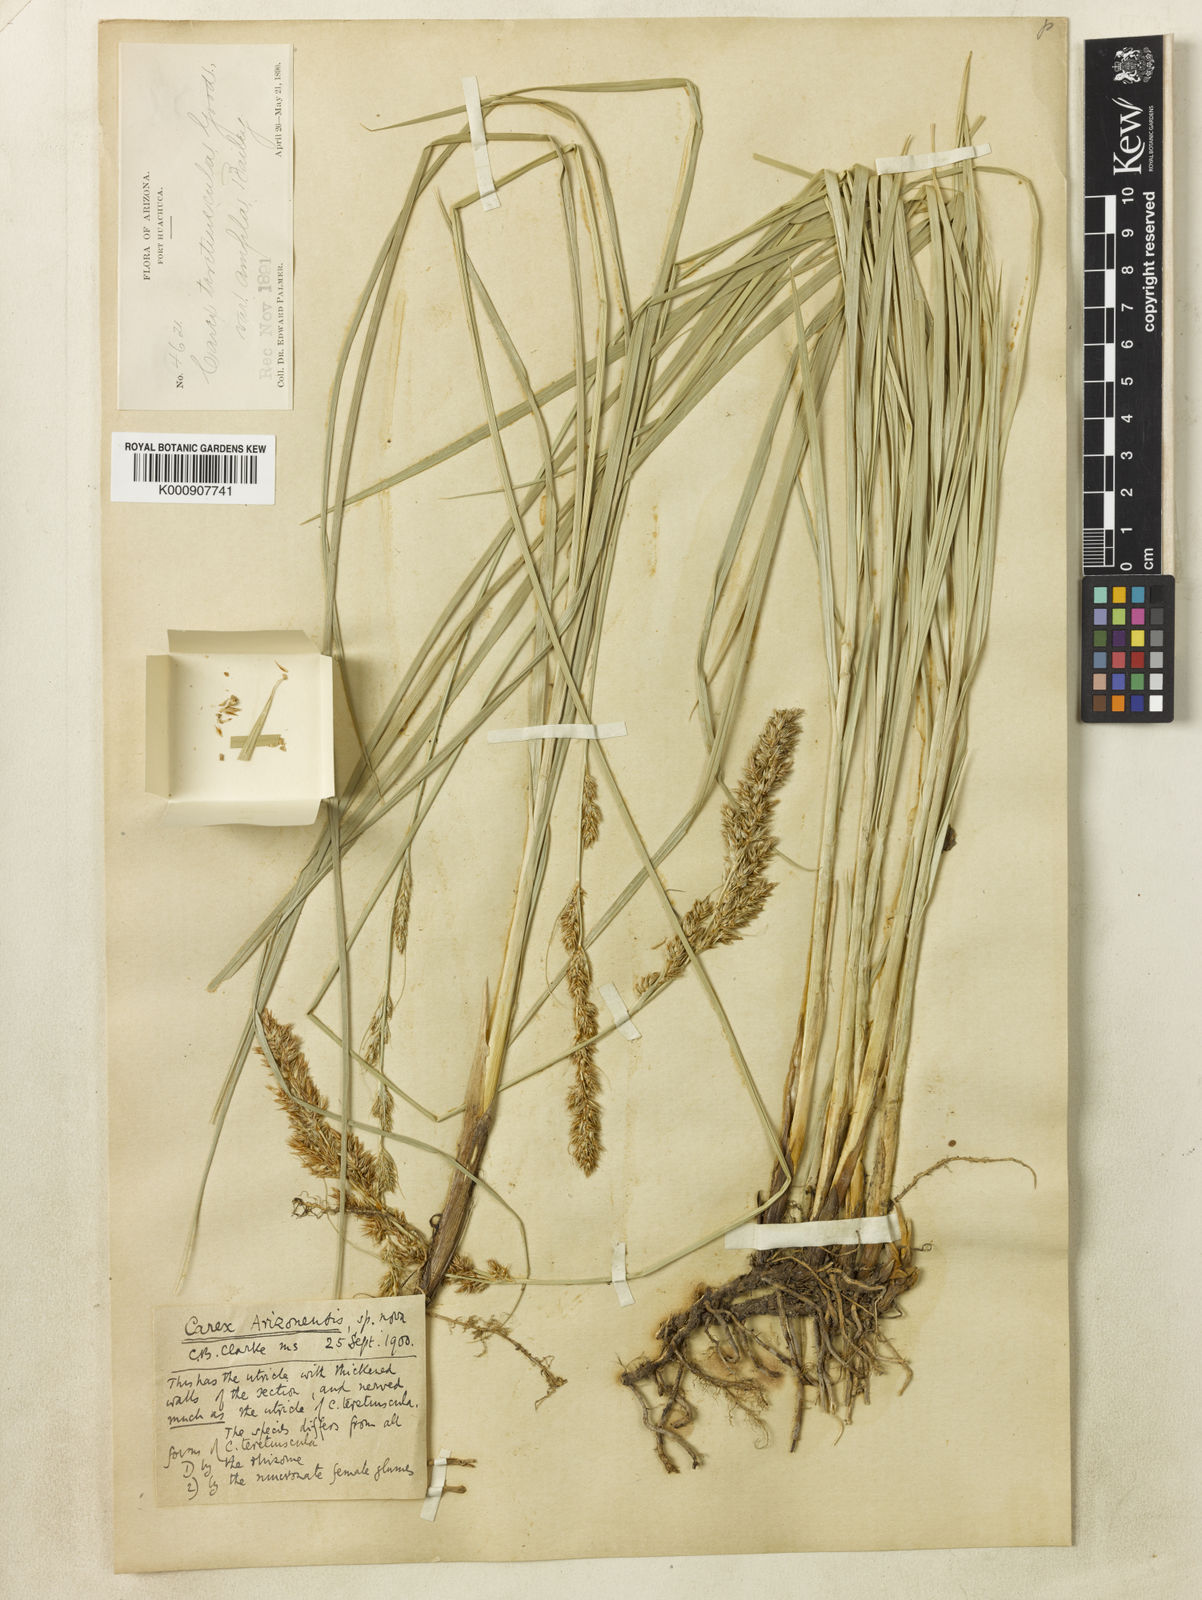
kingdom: Plantae
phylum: Tracheophyta
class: Liliopsida
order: Poales
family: Cyperaceae
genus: Carex
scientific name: Carex alma
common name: Alma sedge
